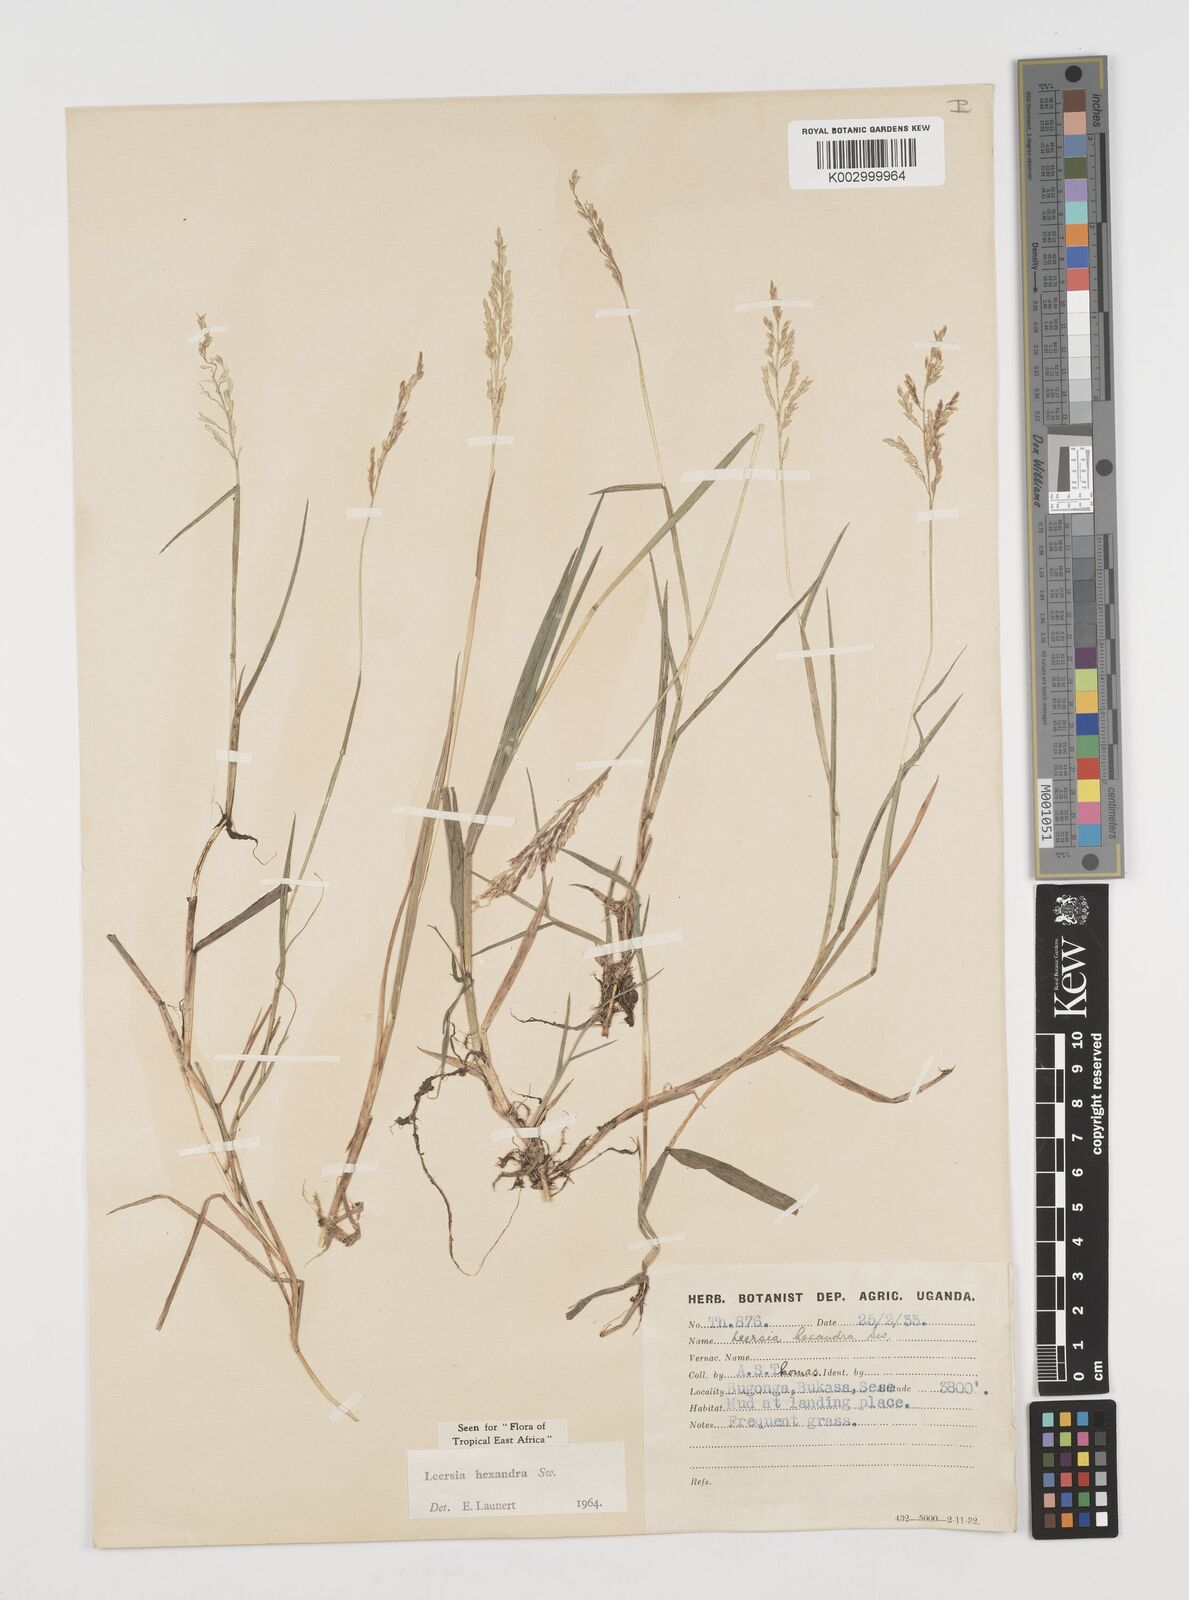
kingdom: Plantae
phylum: Tracheophyta
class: Liliopsida
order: Poales
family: Poaceae
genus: Leersia
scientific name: Leersia hexandra
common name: Southern cut grass
